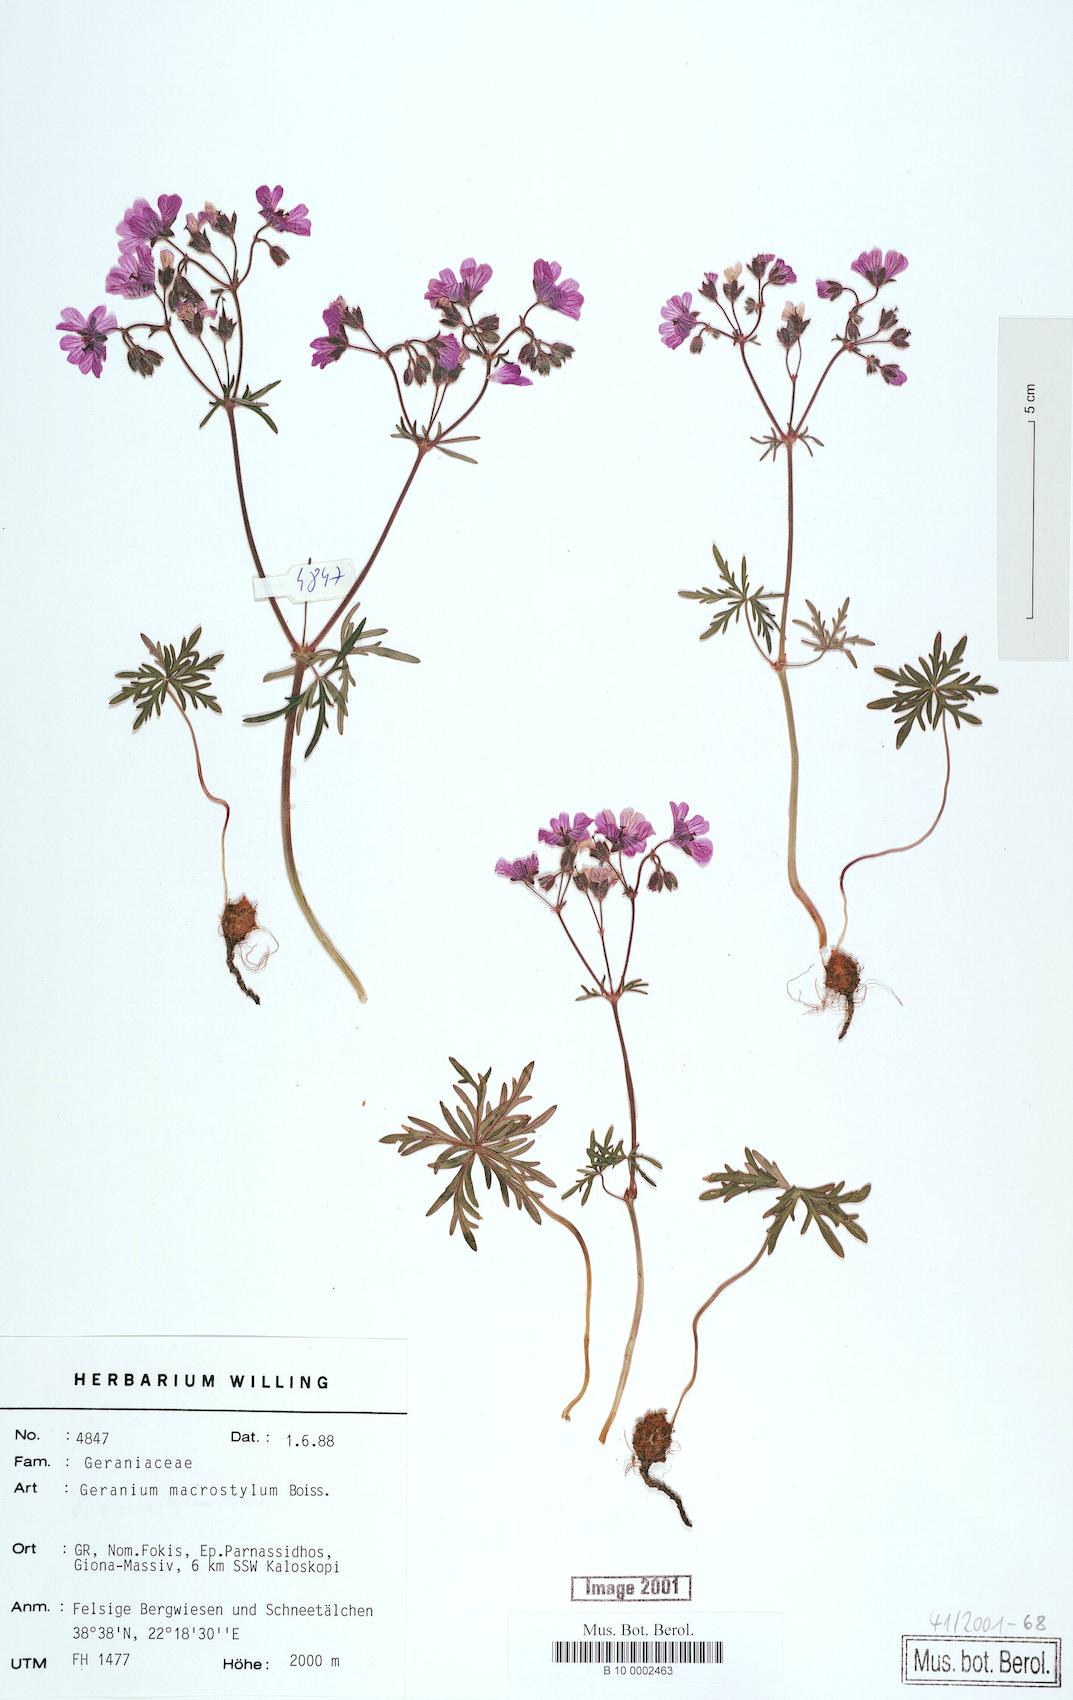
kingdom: Plantae
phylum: Tracheophyta
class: Magnoliopsida
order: Geraniales
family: Geraniaceae
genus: Geranium
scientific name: Geranium macrostylum
